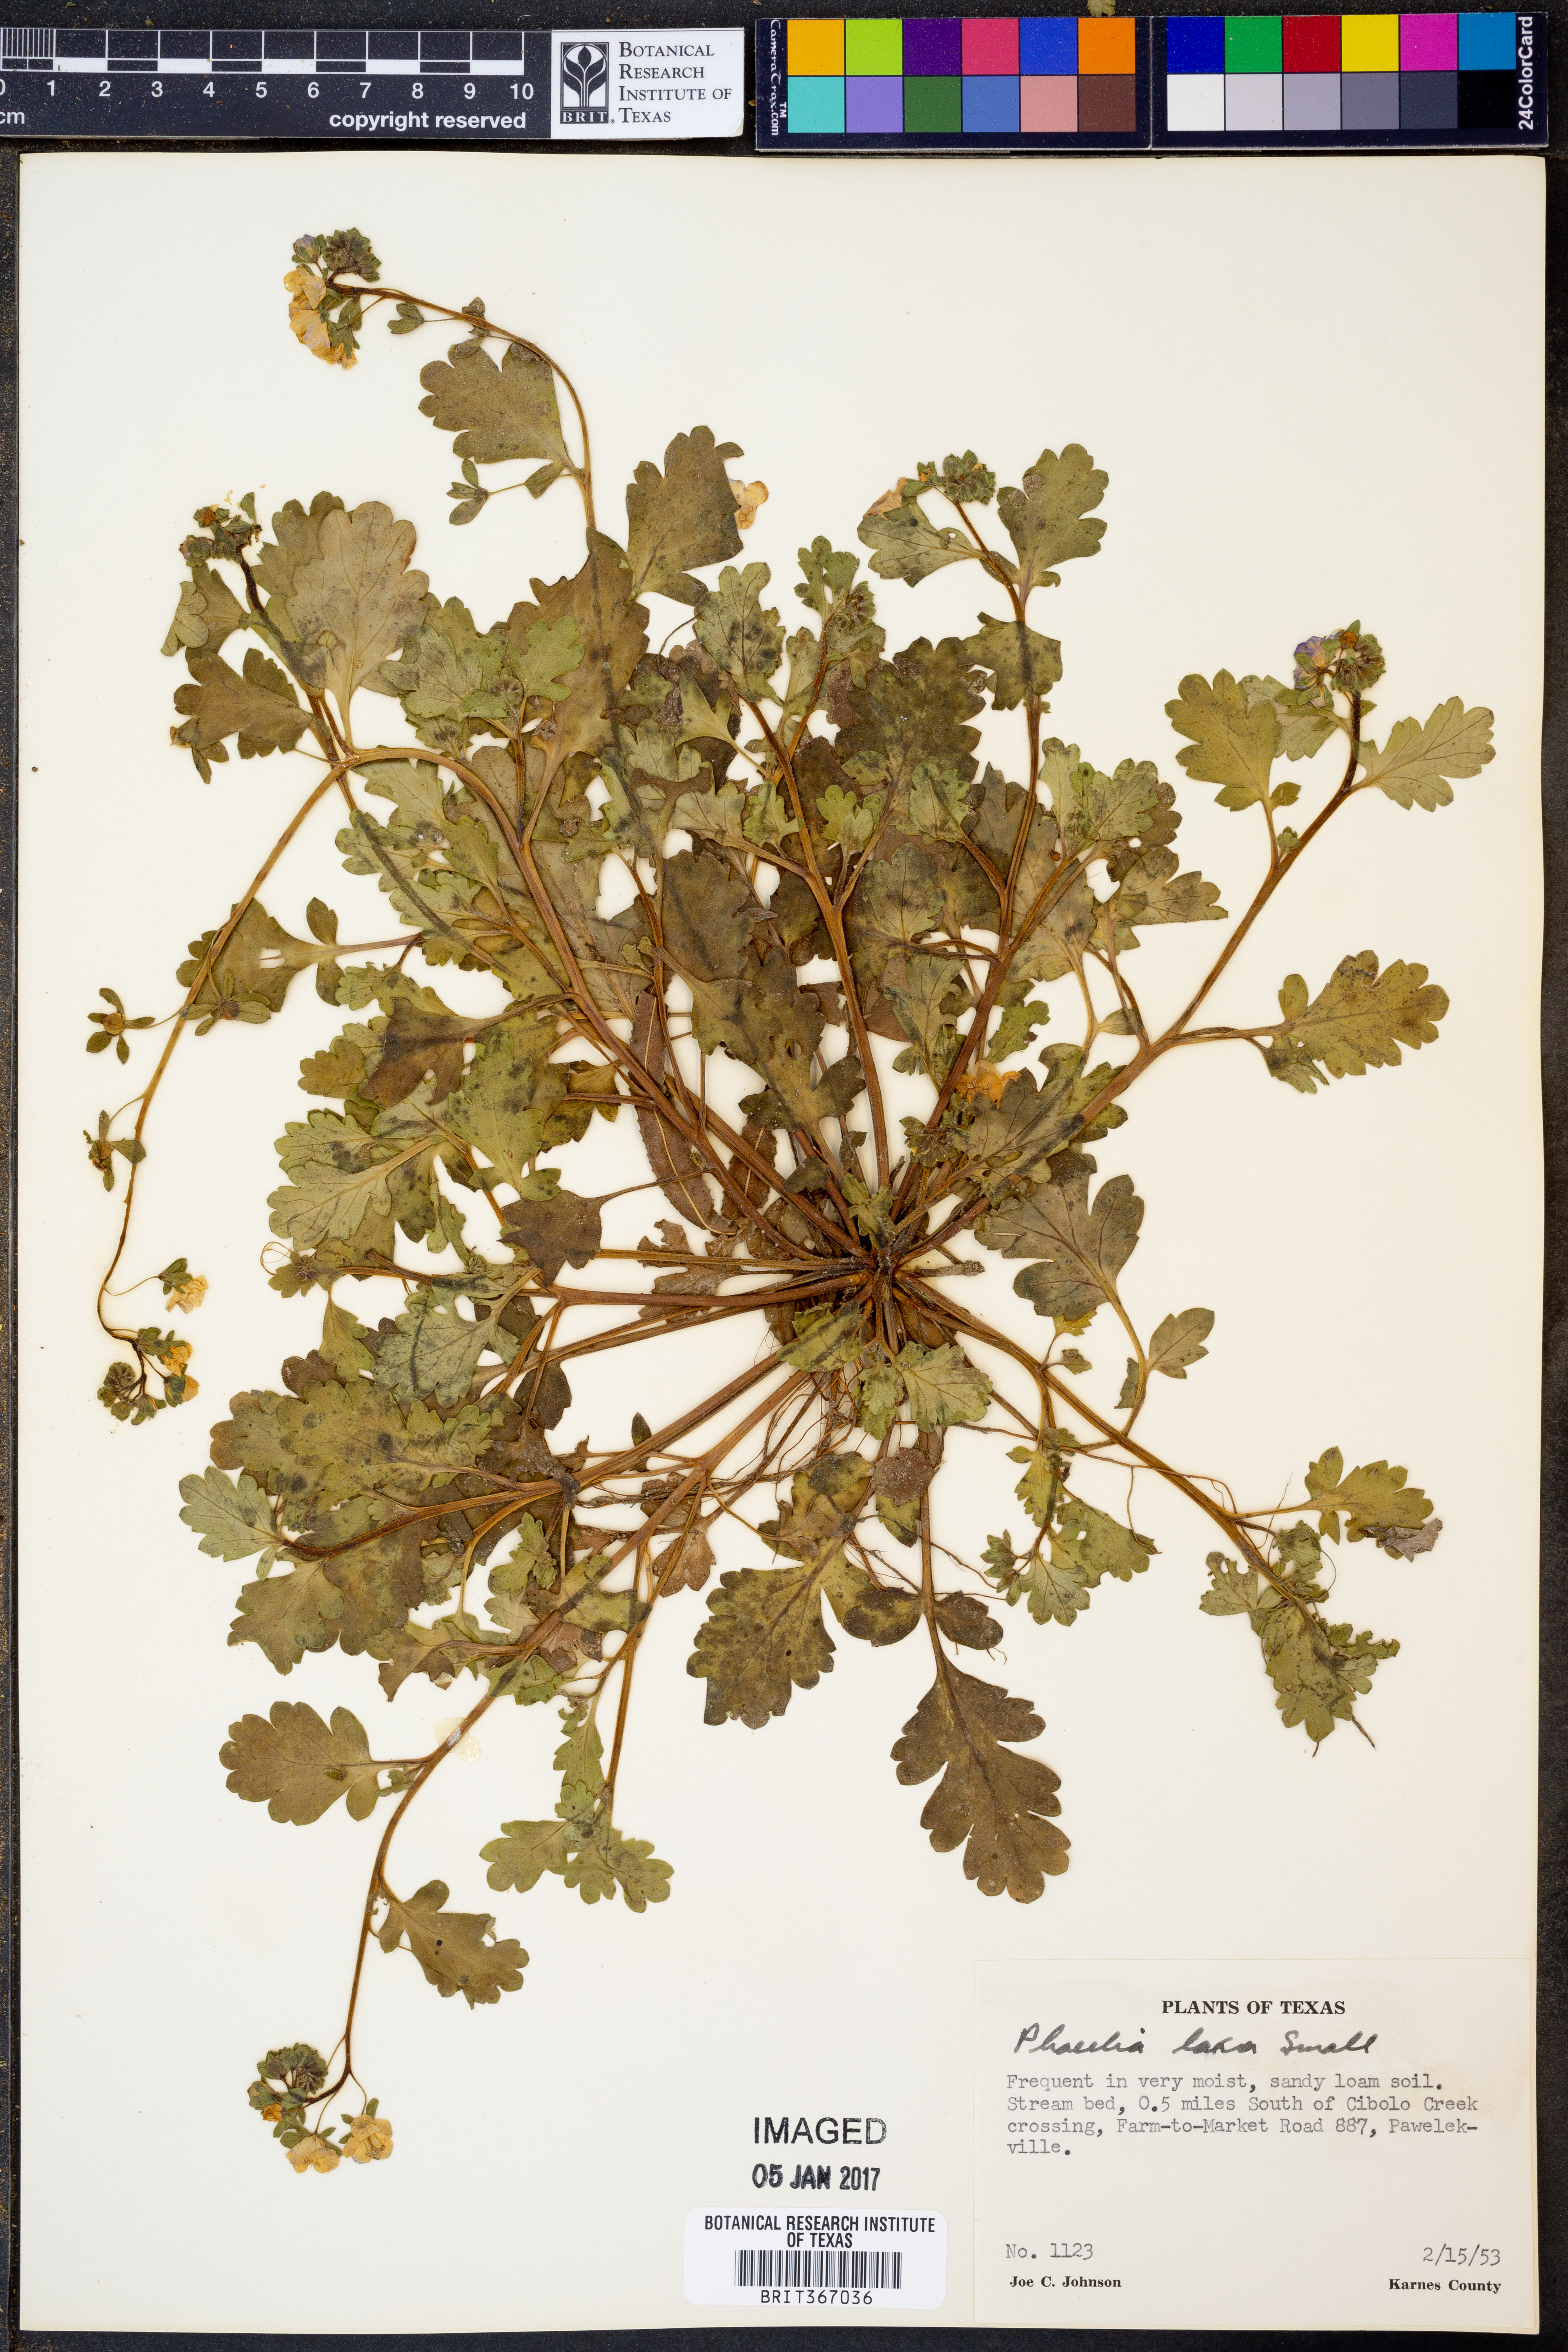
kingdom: Plantae
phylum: Tracheophyta
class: Magnoliopsida
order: Boraginales
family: Hydrophyllaceae
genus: Phacelia
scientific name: Phacelia laxa
